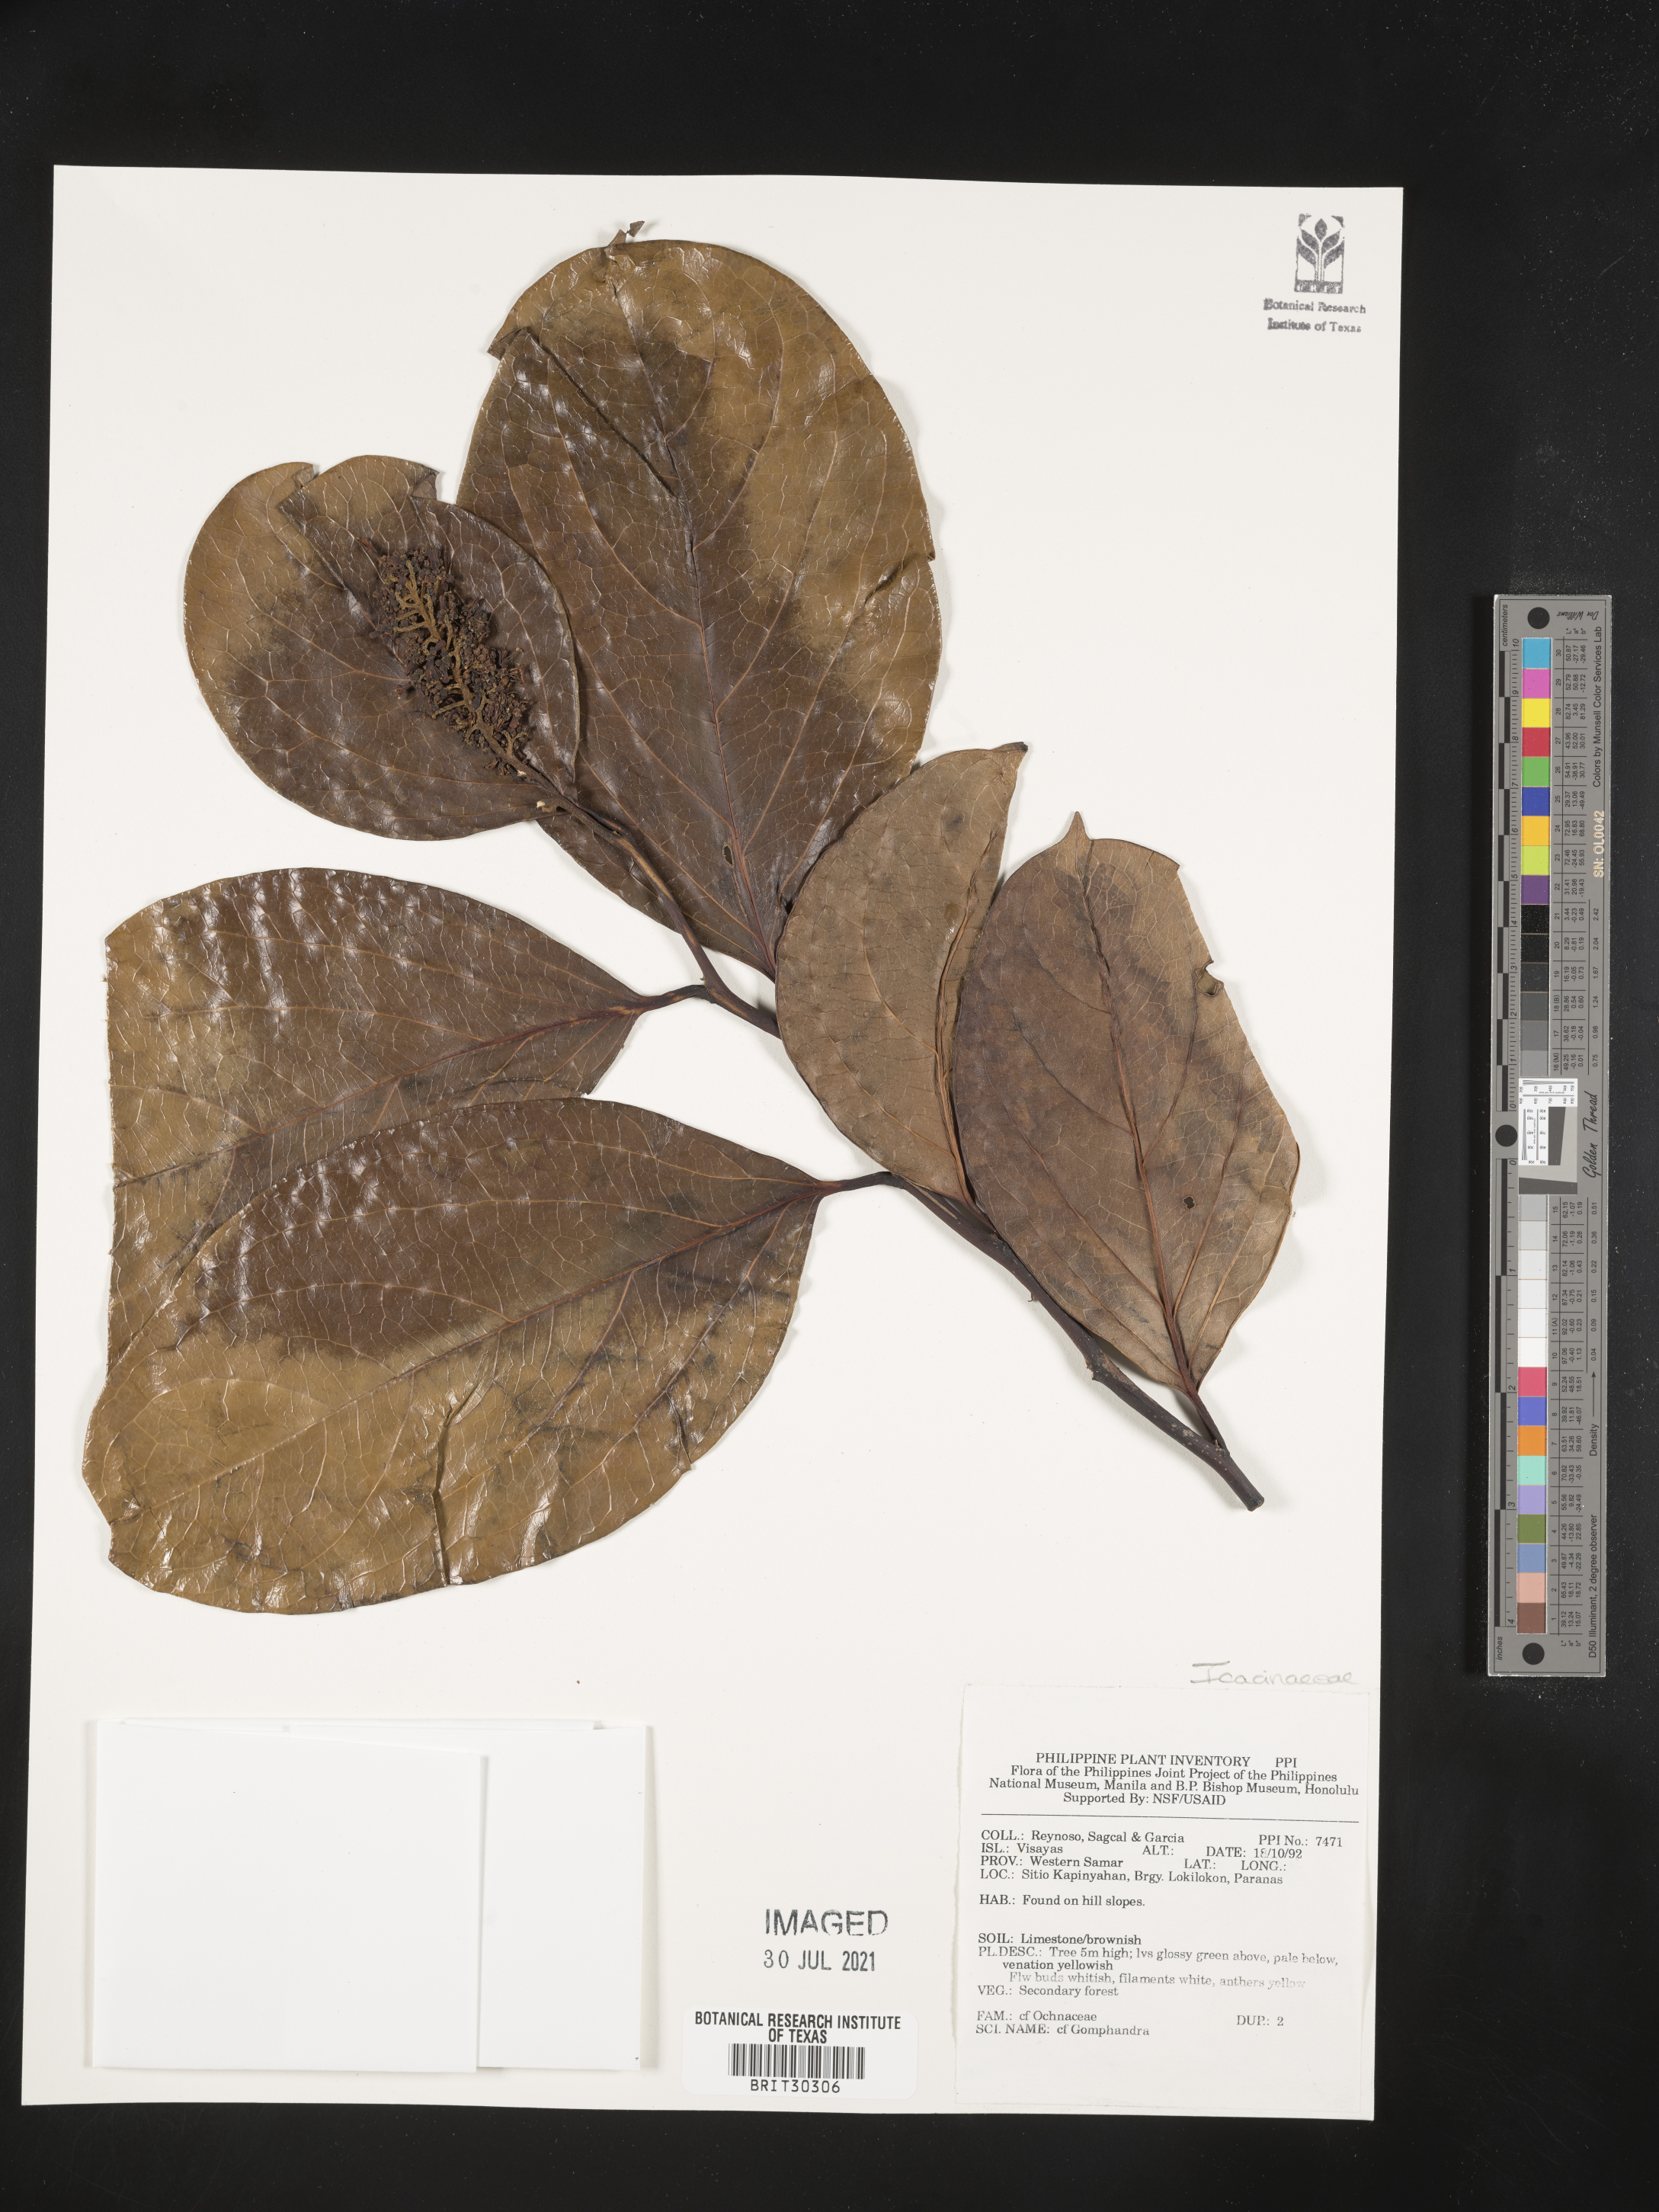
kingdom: Plantae
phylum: Tracheophyta
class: Magnoliopsida
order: Cardiopteridales
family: Stemonuraceae
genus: Gomphandra
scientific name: Gomphandra
